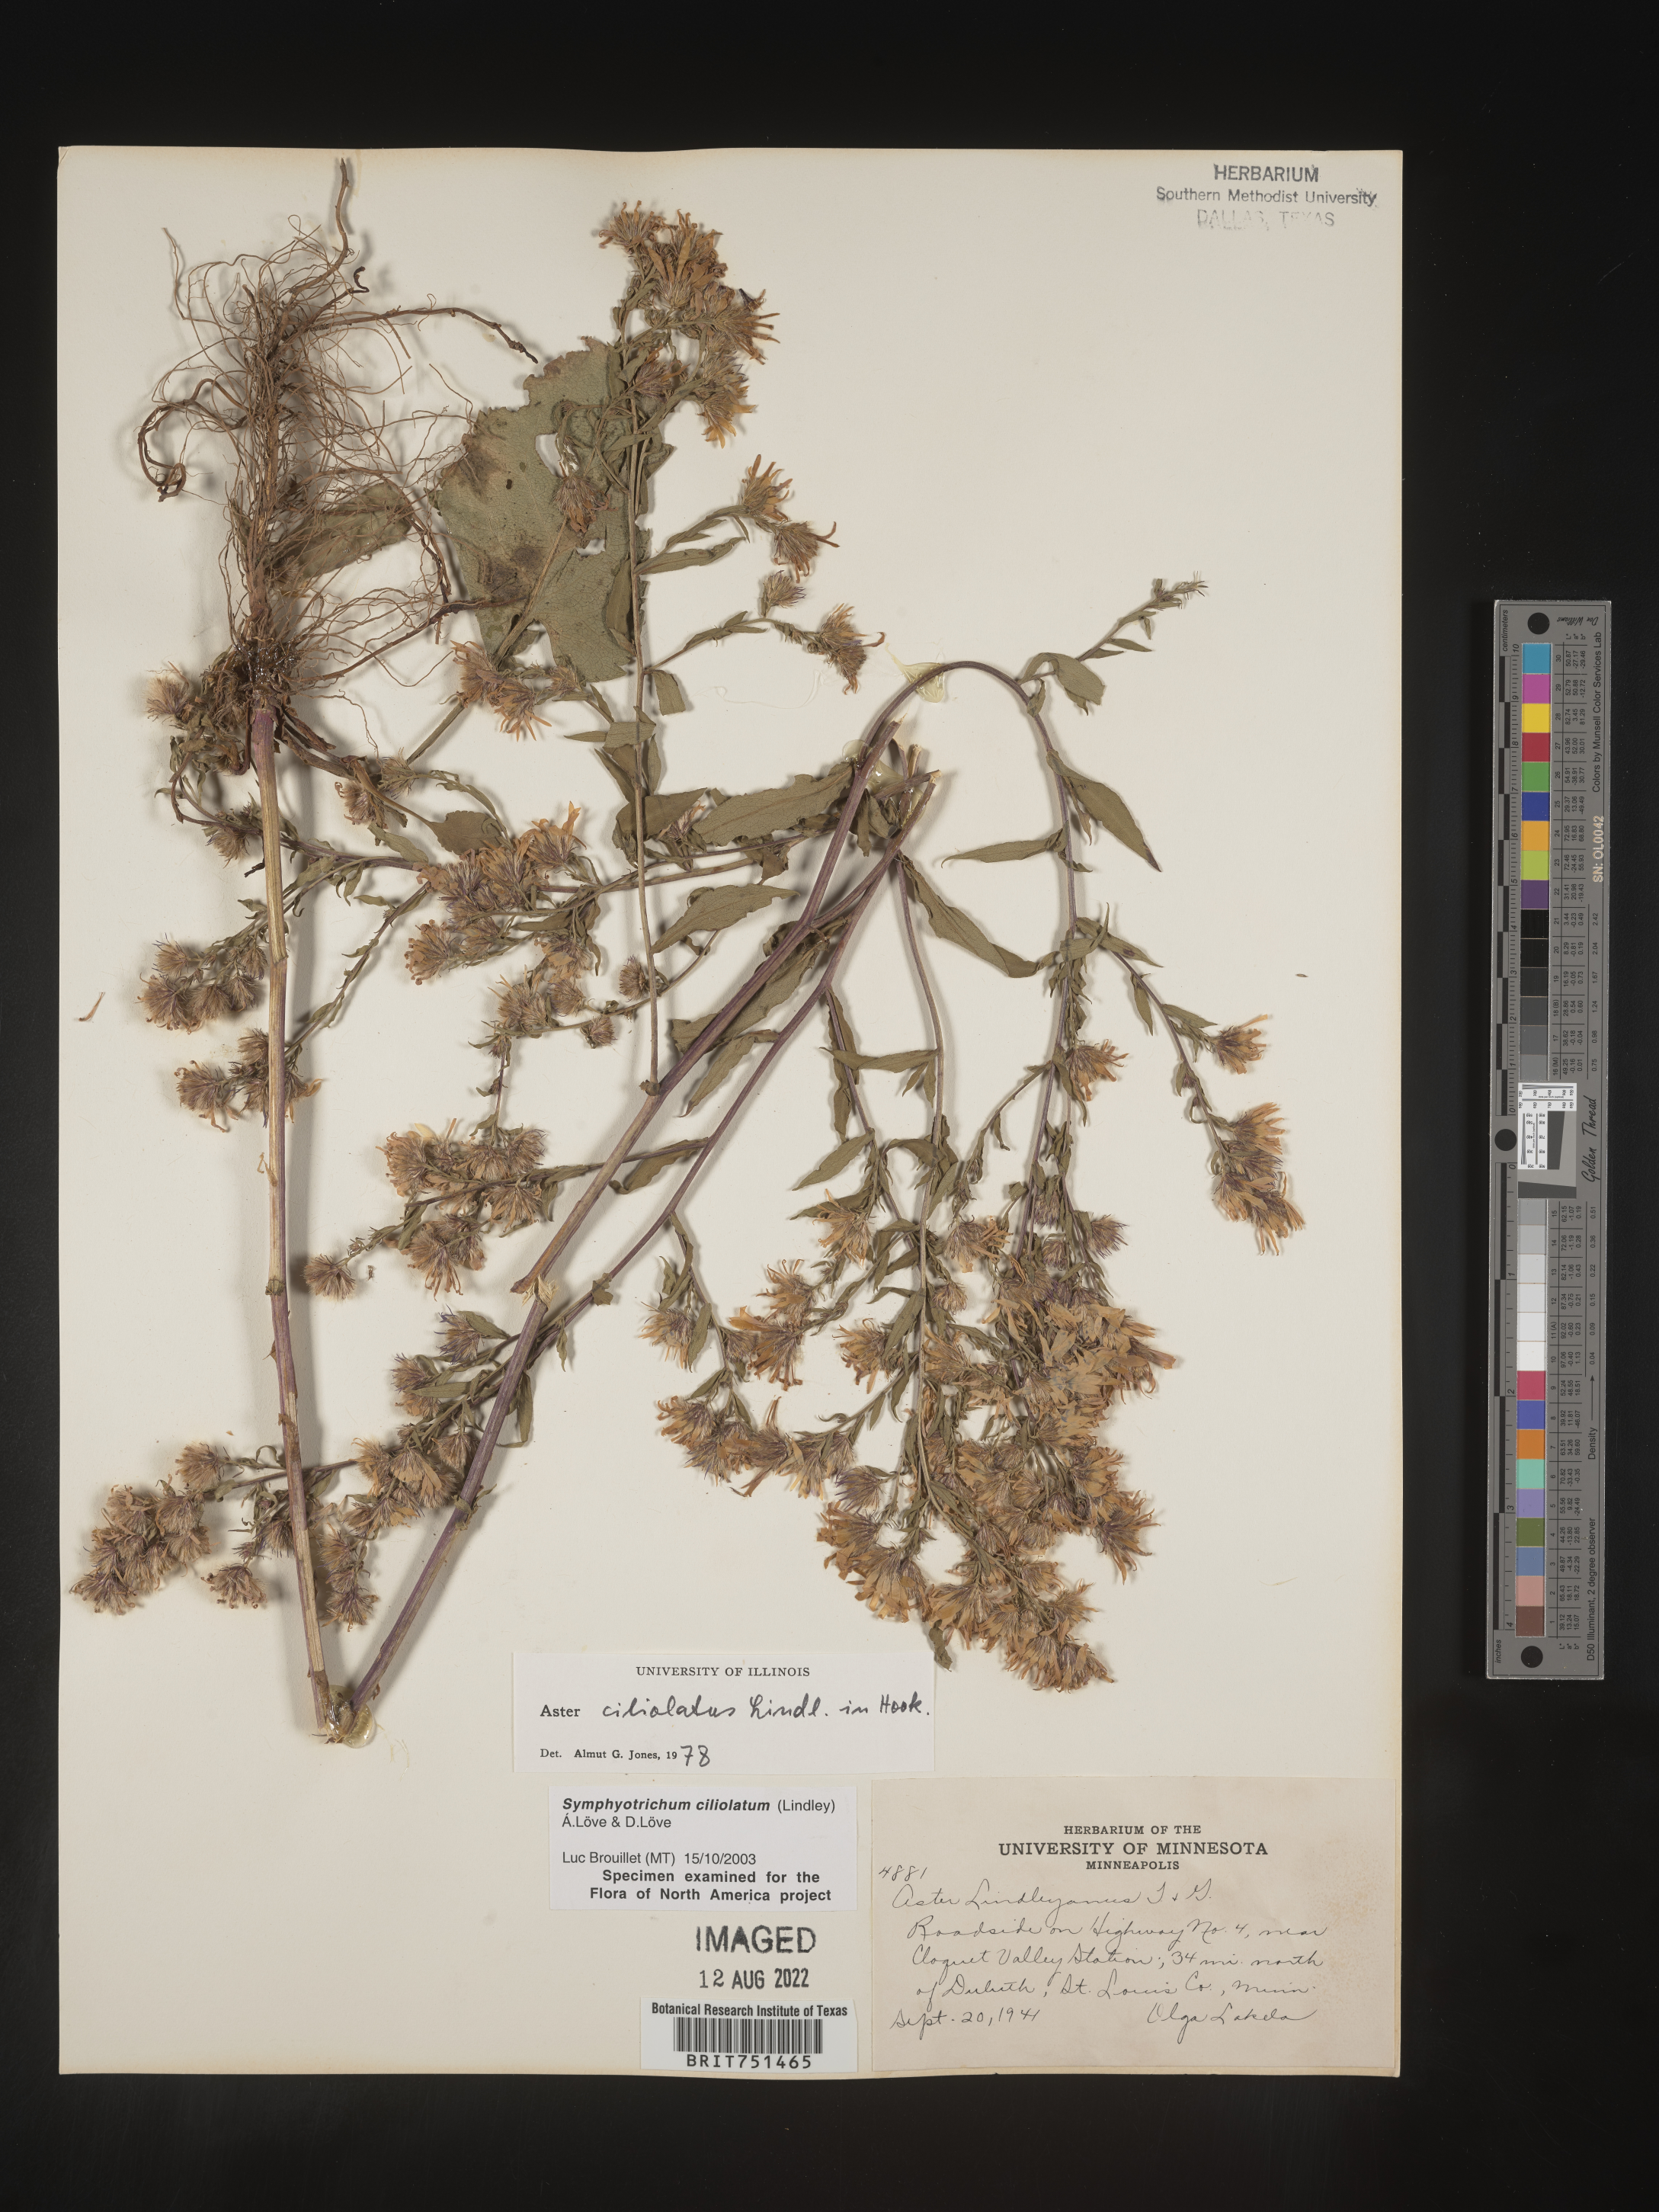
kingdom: Plantae
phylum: Tracheophyta
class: Magnoliopsida
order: Asterales
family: Asteraceae
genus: Symphyotrichum
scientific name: Symphyotrichum ciliolatum
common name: Fringed blue aster
